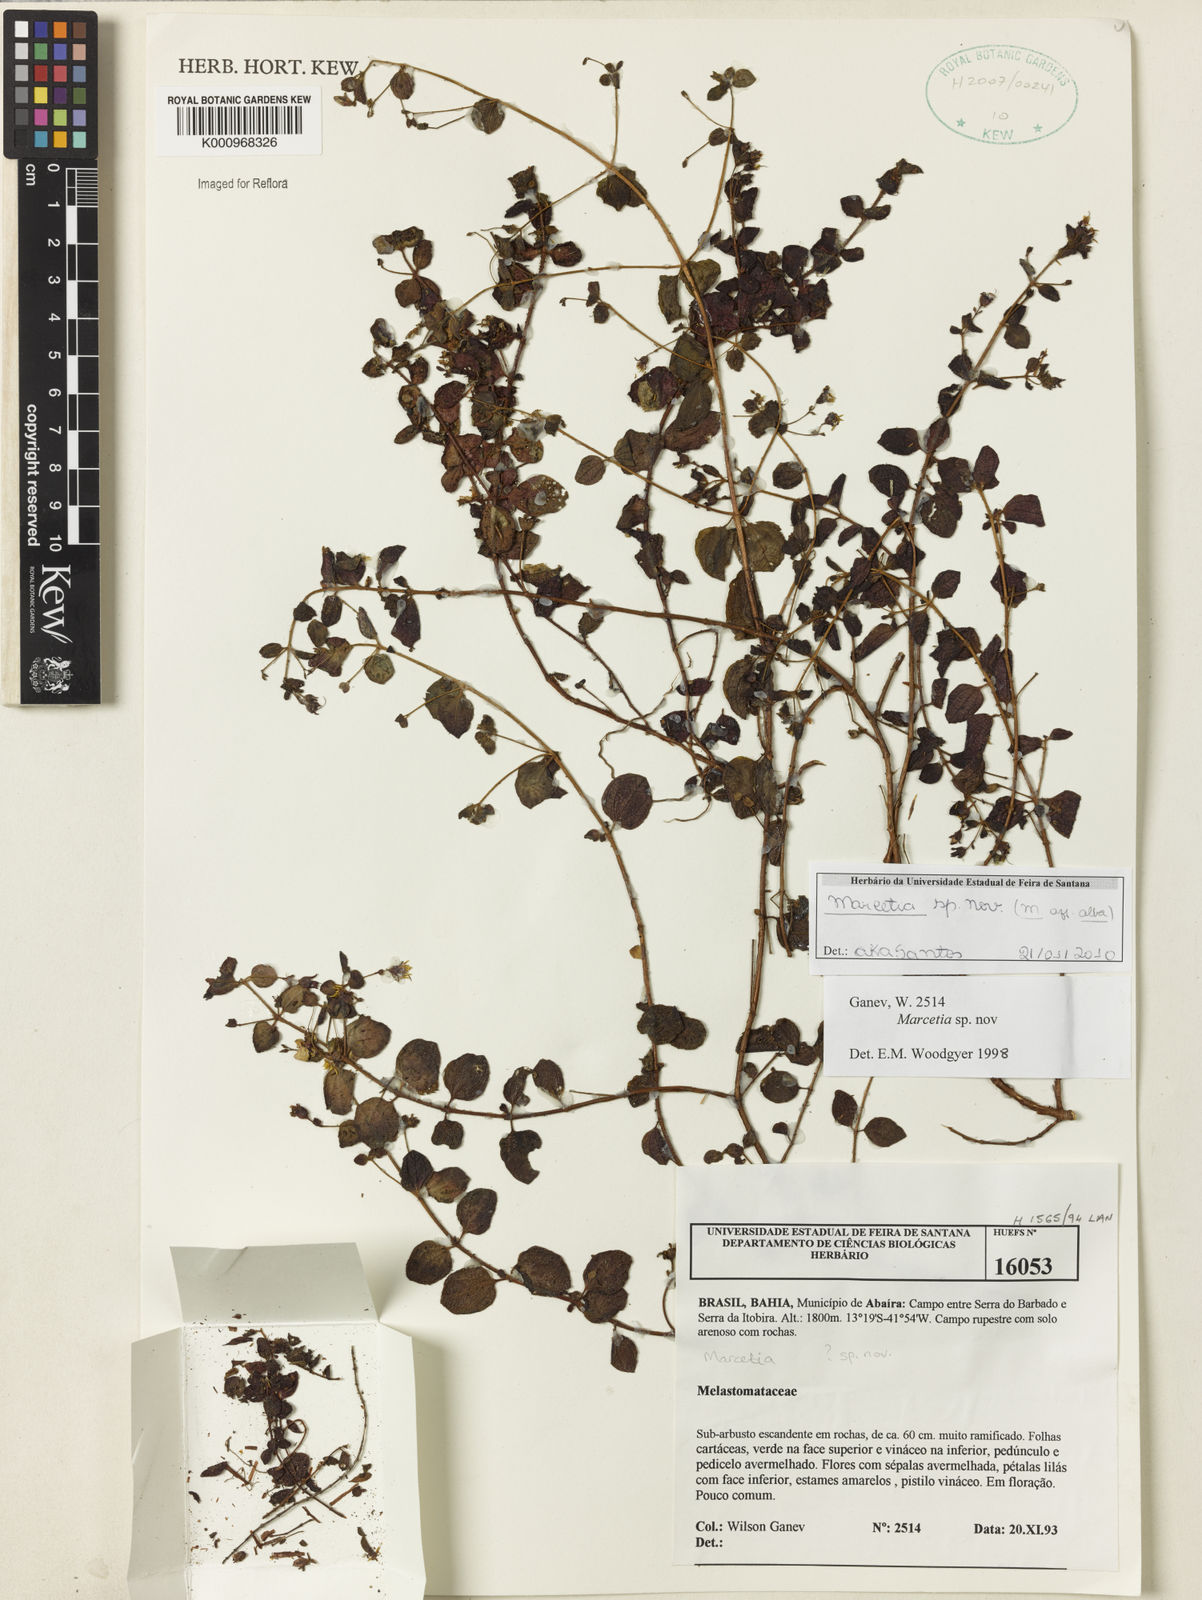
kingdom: Plantae
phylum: Tracheophyta
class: Magnoliopsida
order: Myrtales
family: Melastomataceae
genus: Marcetia
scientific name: Marcetia alba
